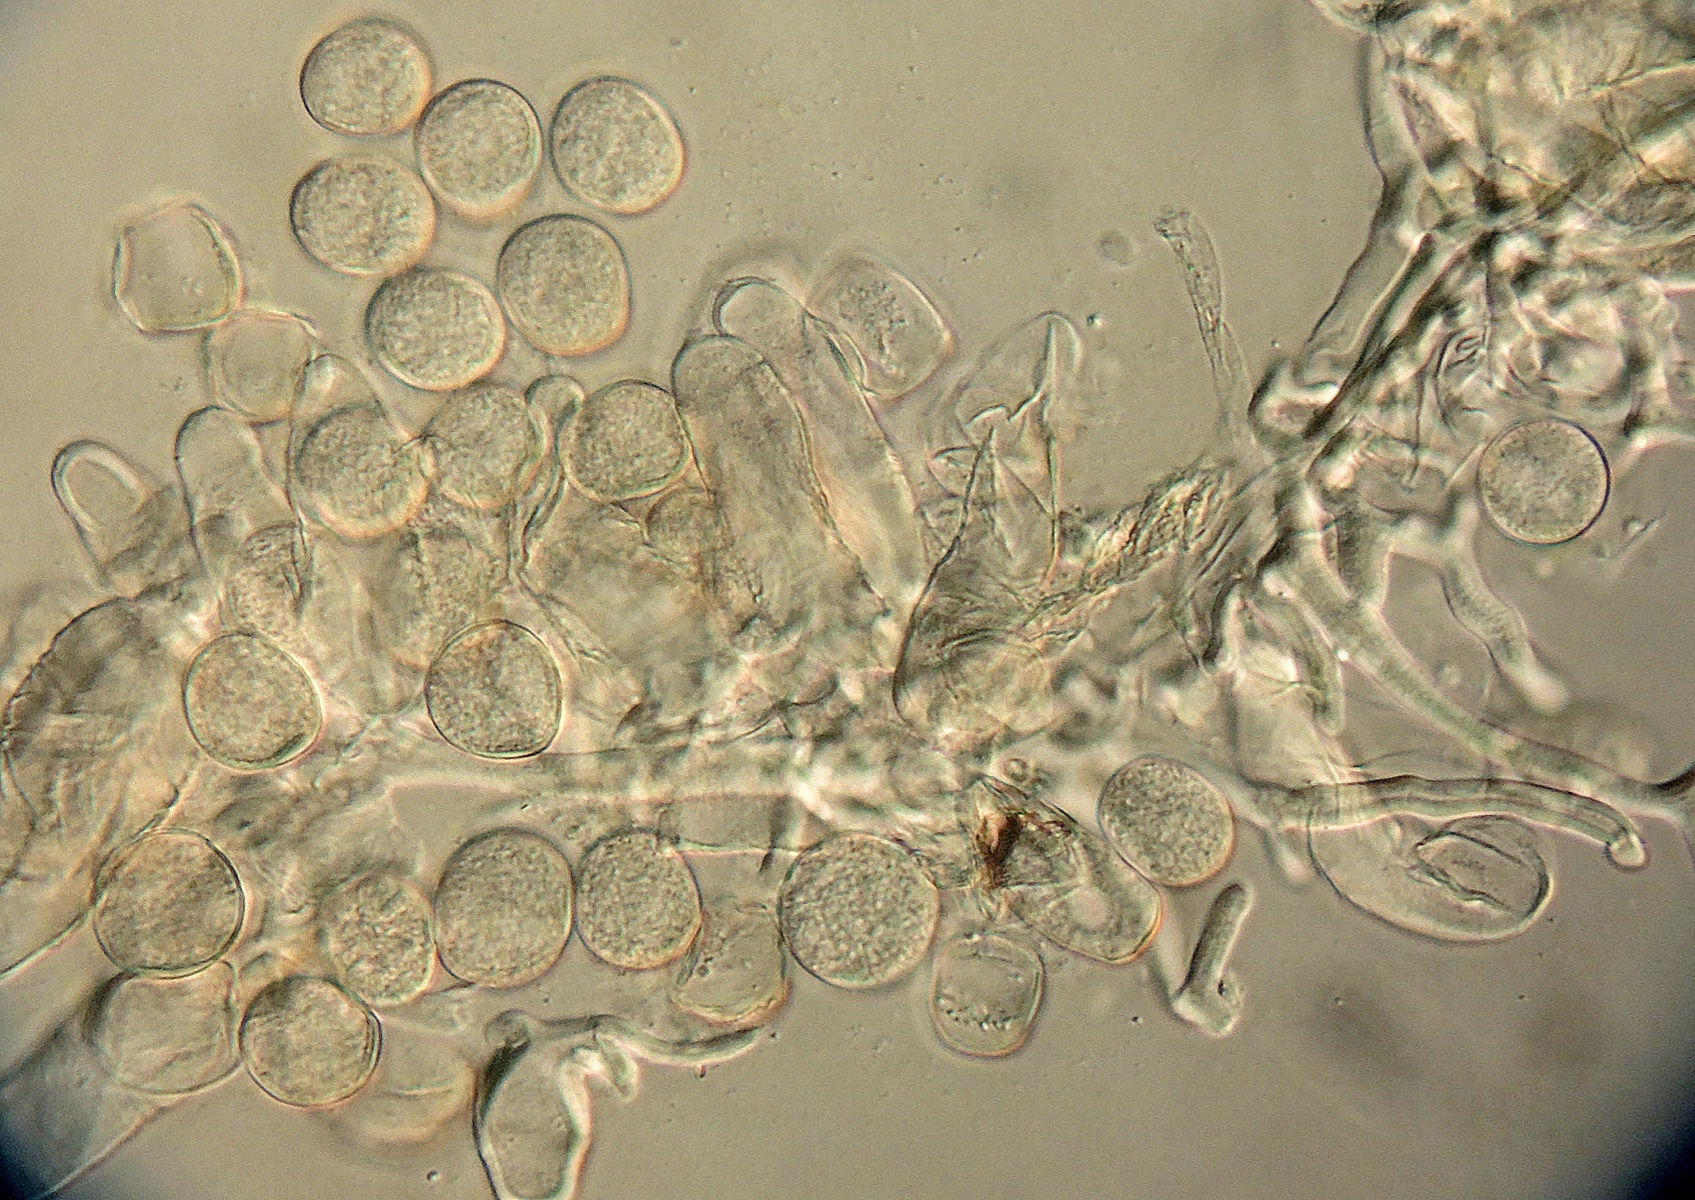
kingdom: Chromista
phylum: Oomycota
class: Peronosporea
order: Albuginales
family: Albuginaceae
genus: Pustula
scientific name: Pustula tragopogonis
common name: Sunflower white rust
